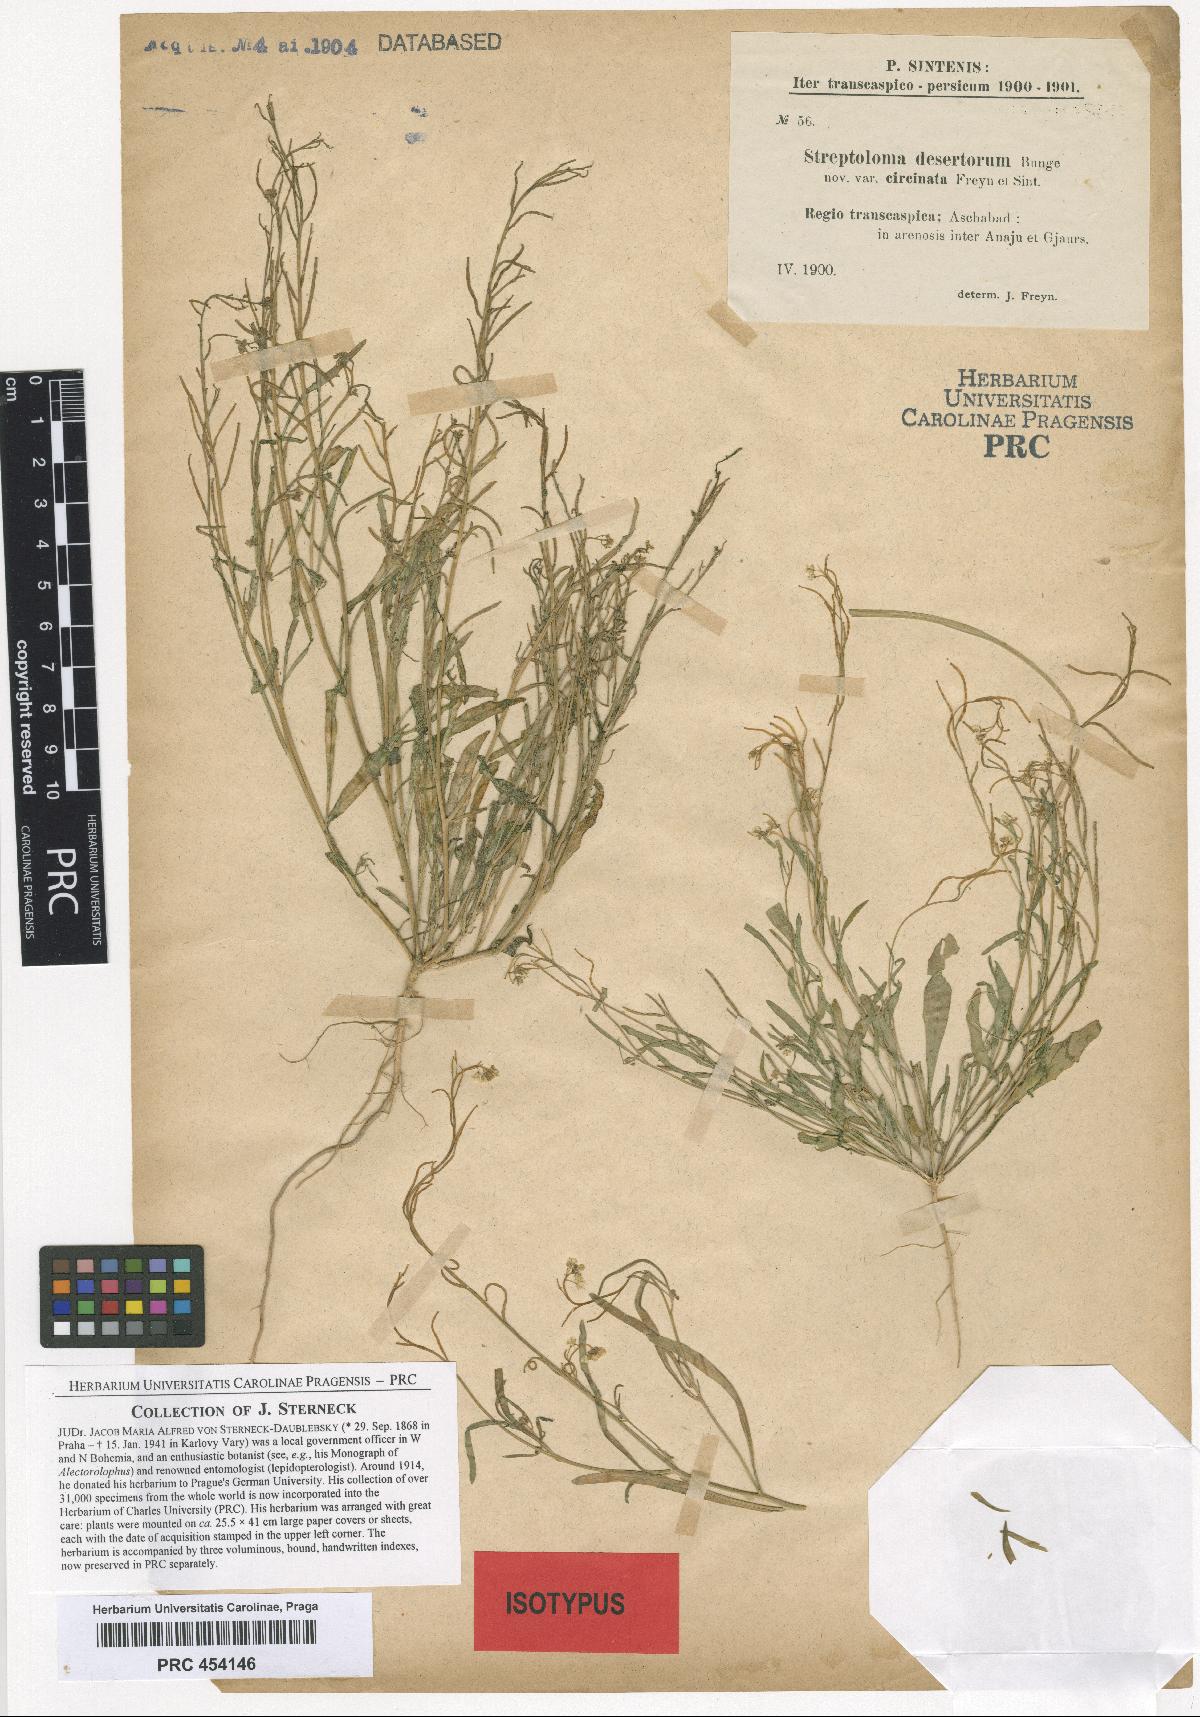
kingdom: Plantae
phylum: Tracheophyta
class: Magnoliopsida
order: Brassicales
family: Brassicaceae
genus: Streptoloma
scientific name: Streptoloma desertorum
